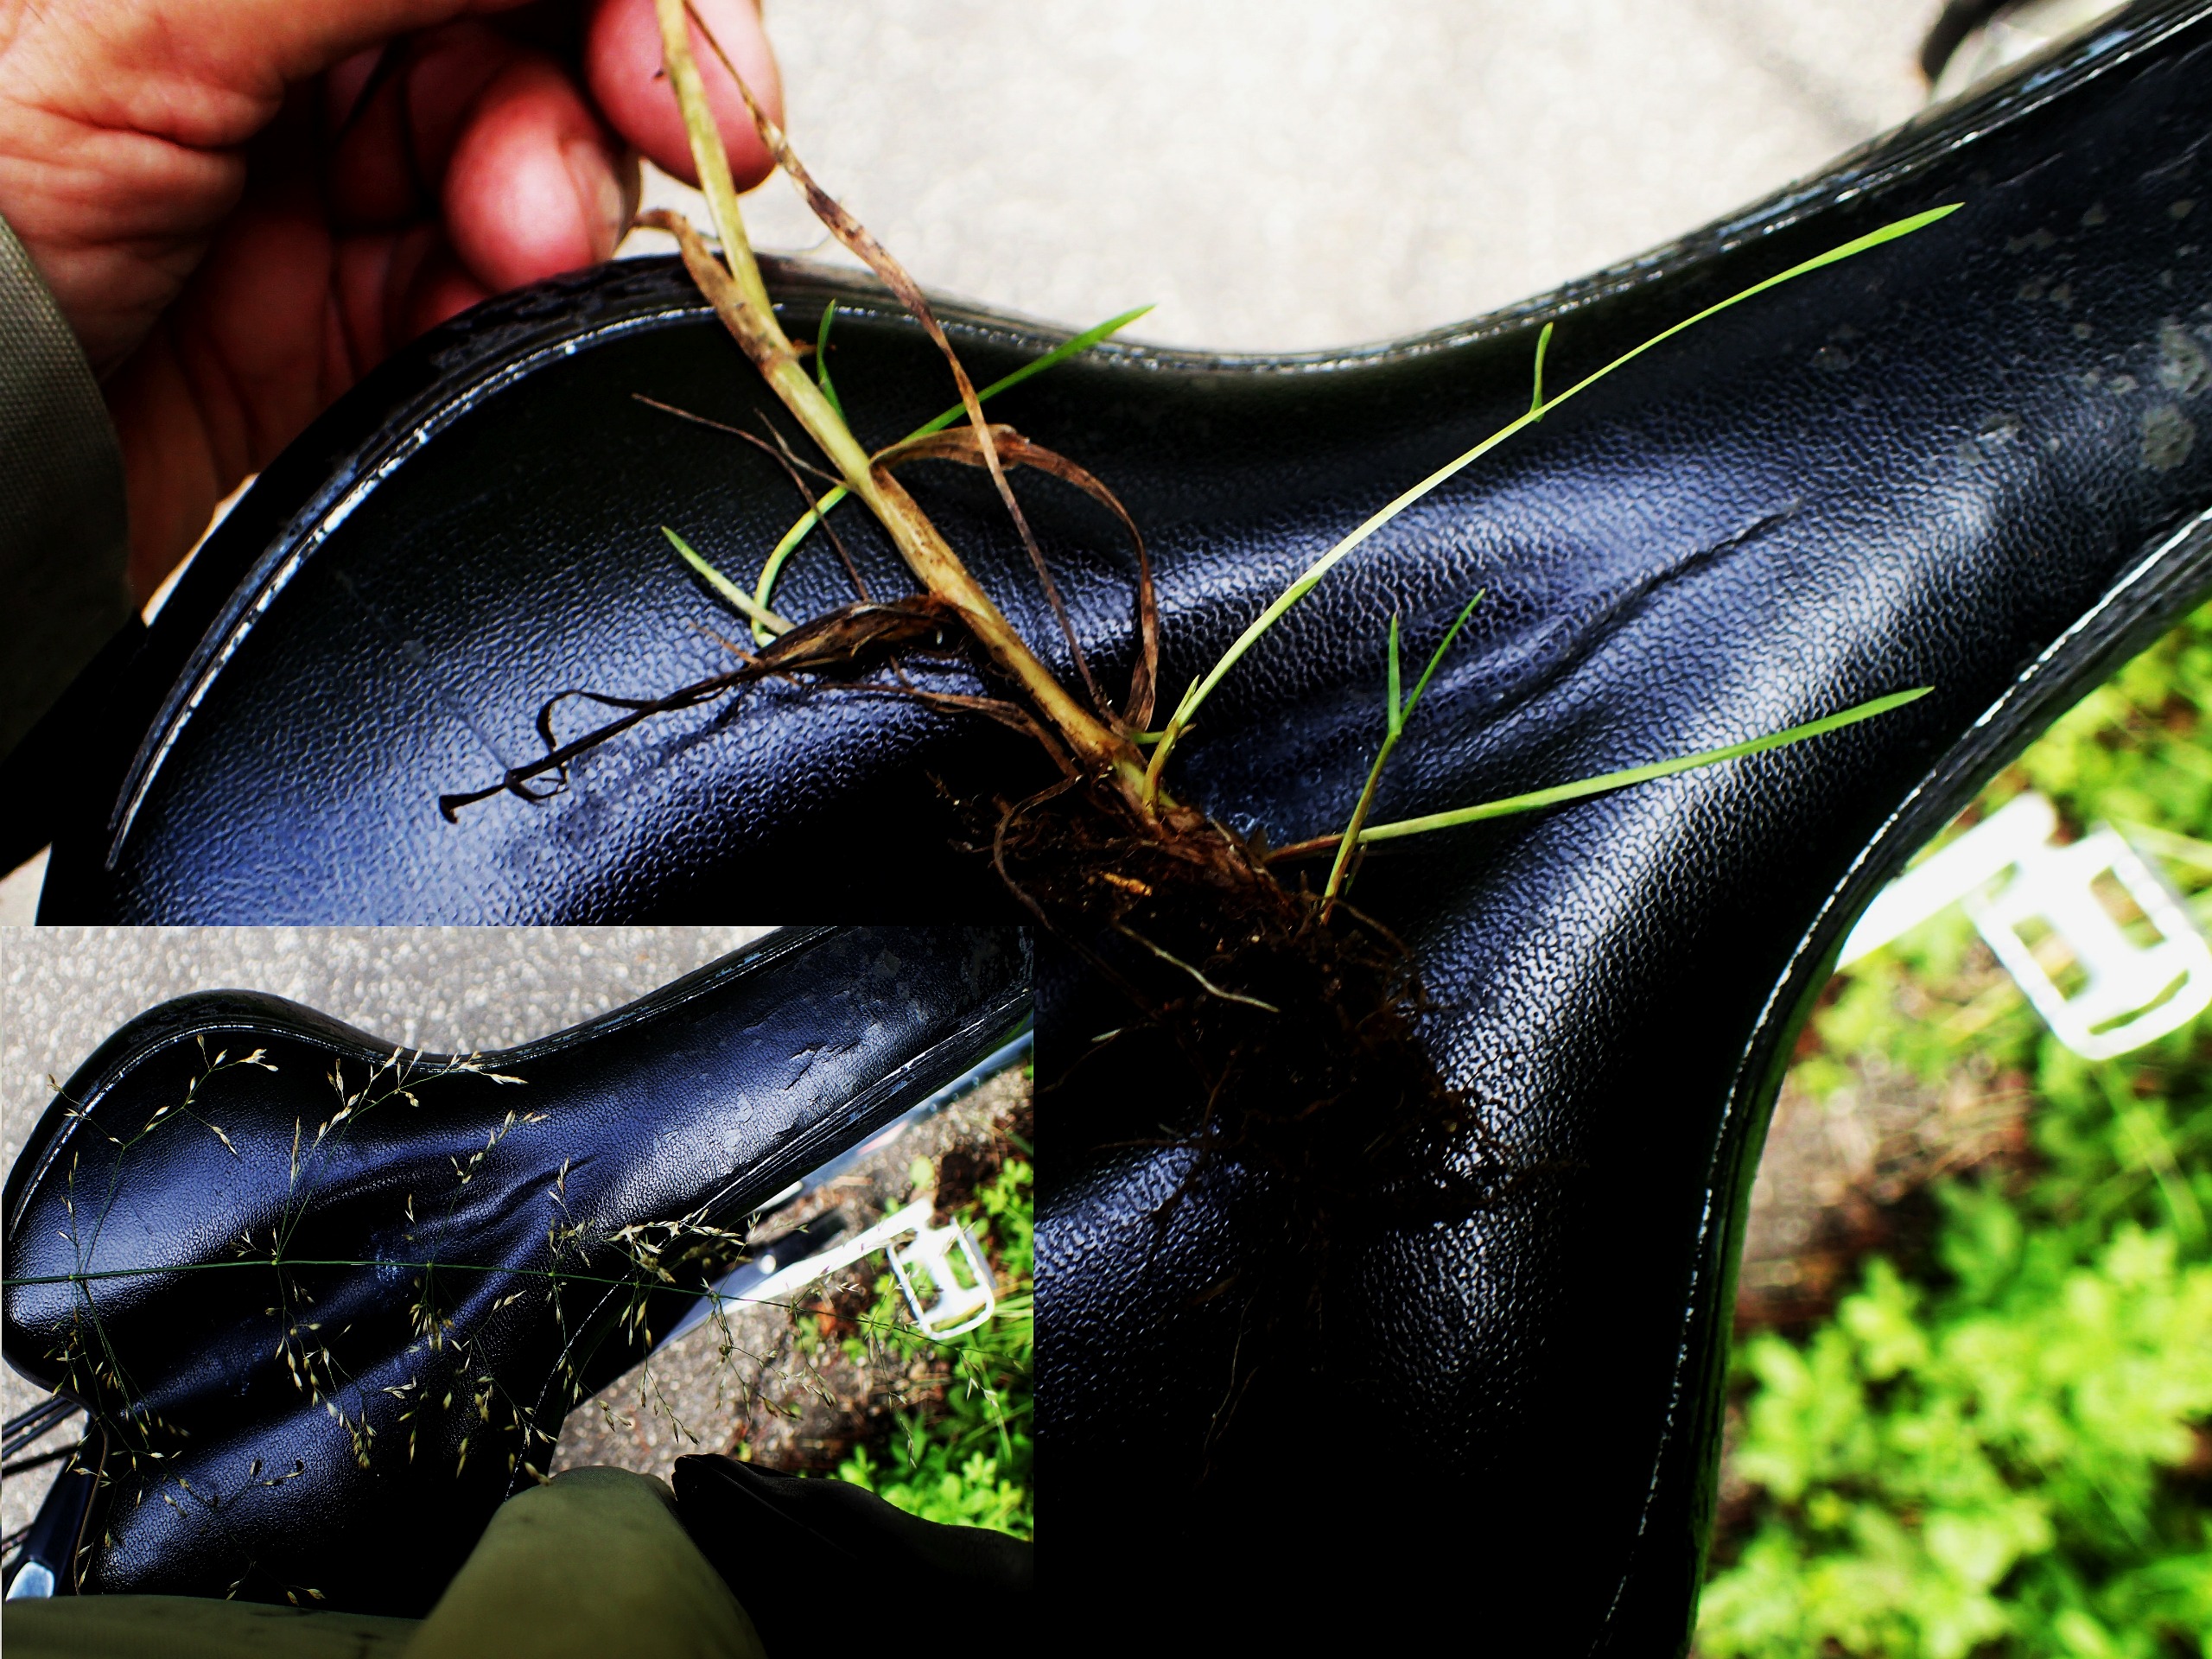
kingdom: Plantae
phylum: Tracheophyta
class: Liliopsida
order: Poales
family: Poaceae
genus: Agrostis
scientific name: Agrostis capillaris
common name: Almindelig hvene
